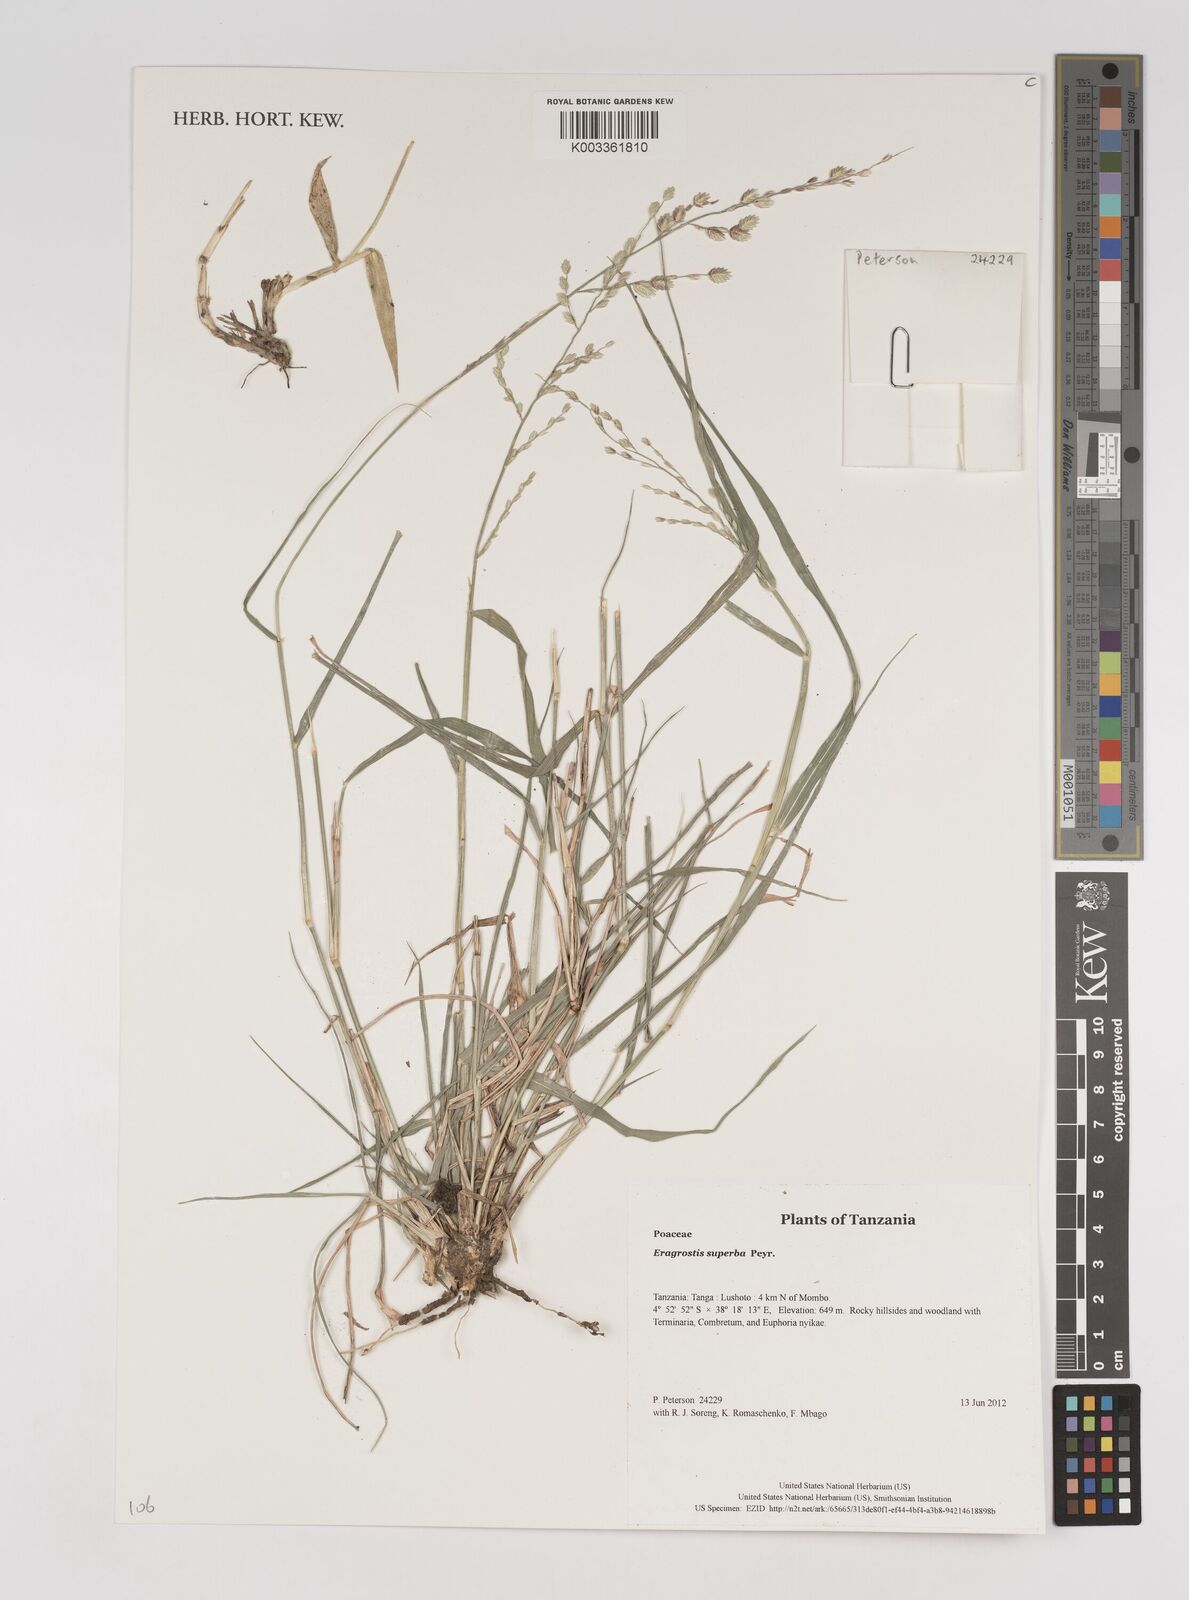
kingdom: Plantae
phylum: Tracheophyta
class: Liliopsida
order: Poales
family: Poaceae
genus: Eragrostis
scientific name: Eragrostis superba
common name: Wilman lovegrass
